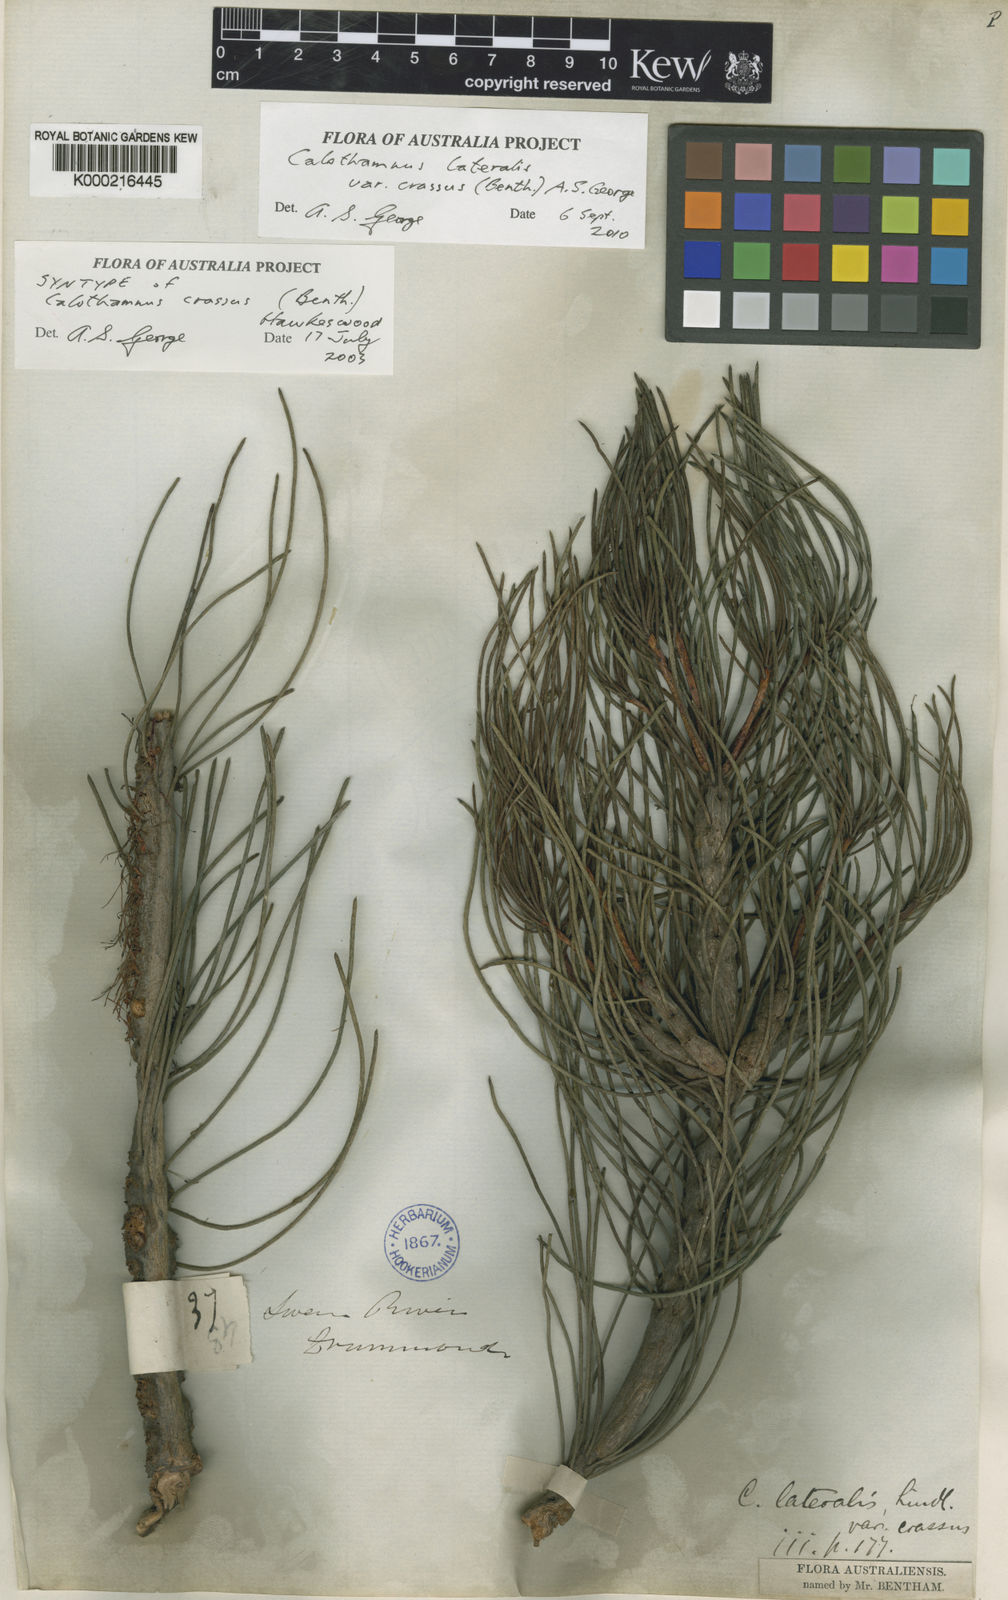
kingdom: Plantae
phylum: Tracheophyta
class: Magnoliopsida
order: Myrtales
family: Myrtaceae
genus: Melaleuca
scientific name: Melaleuca alilateralis
